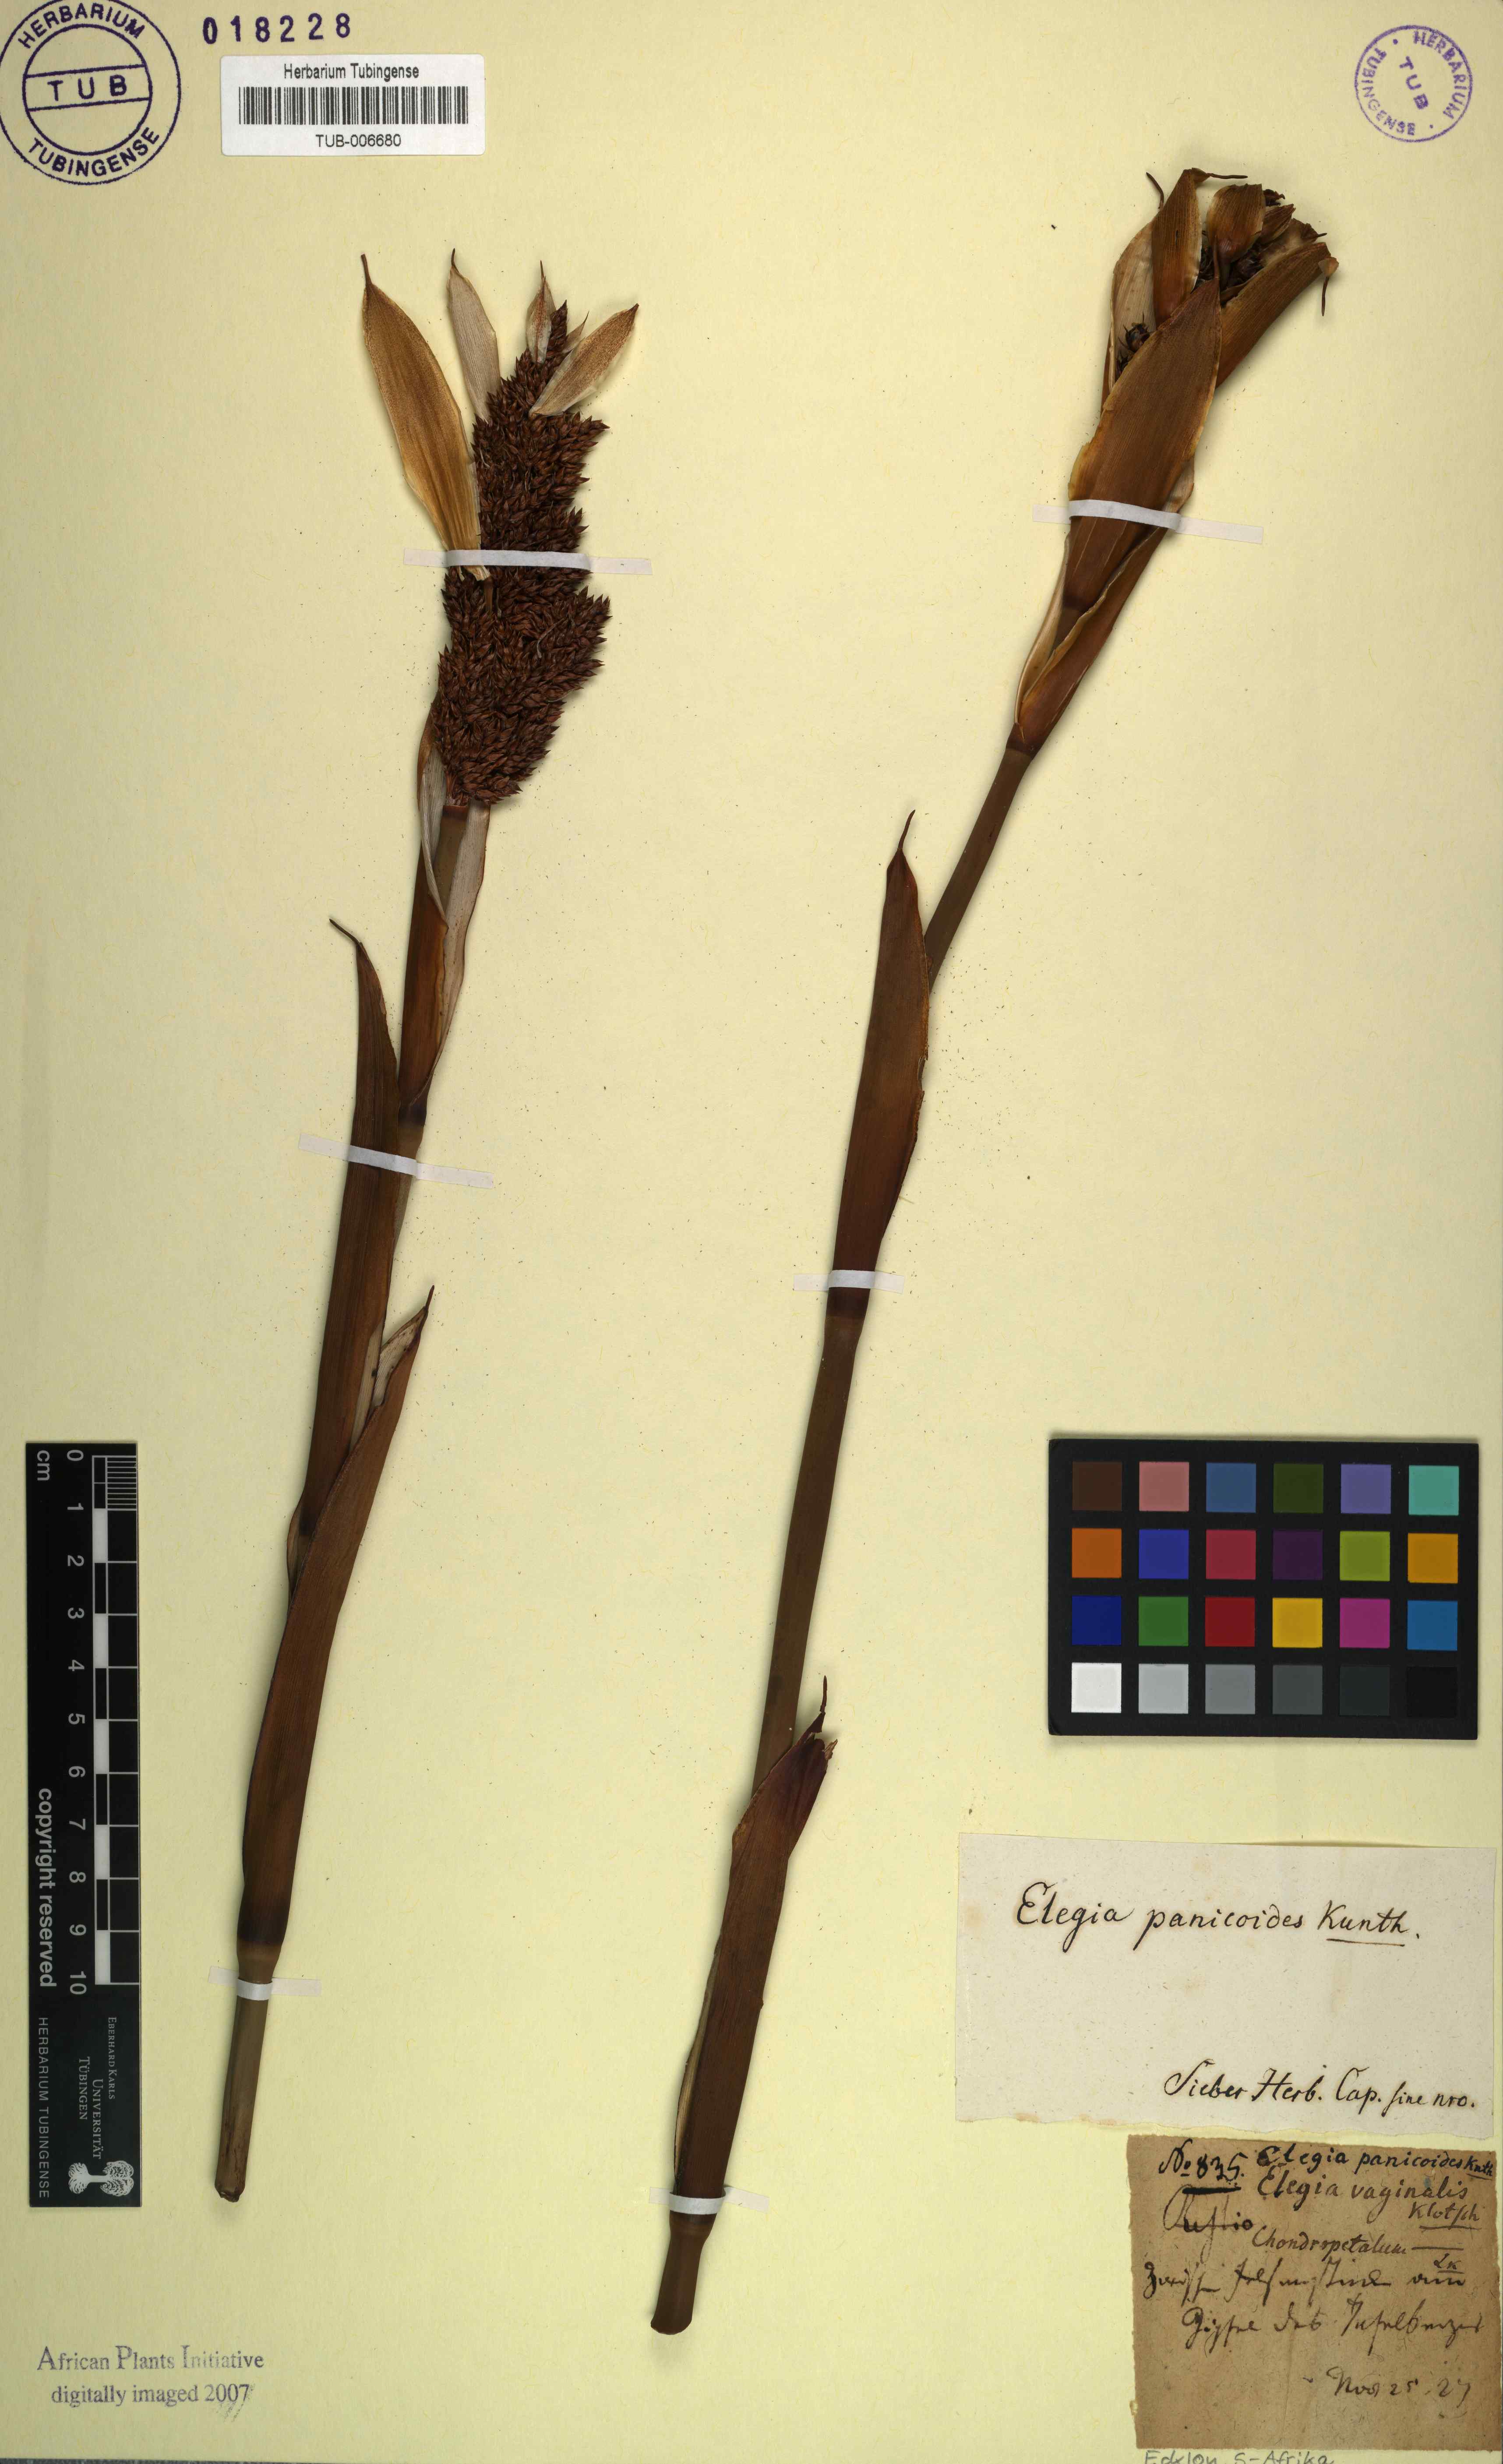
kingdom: Plantae
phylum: Tracheophyta
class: Liliopsida
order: Poales
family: Restionaceae
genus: Elegia
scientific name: Elegia mucronata
